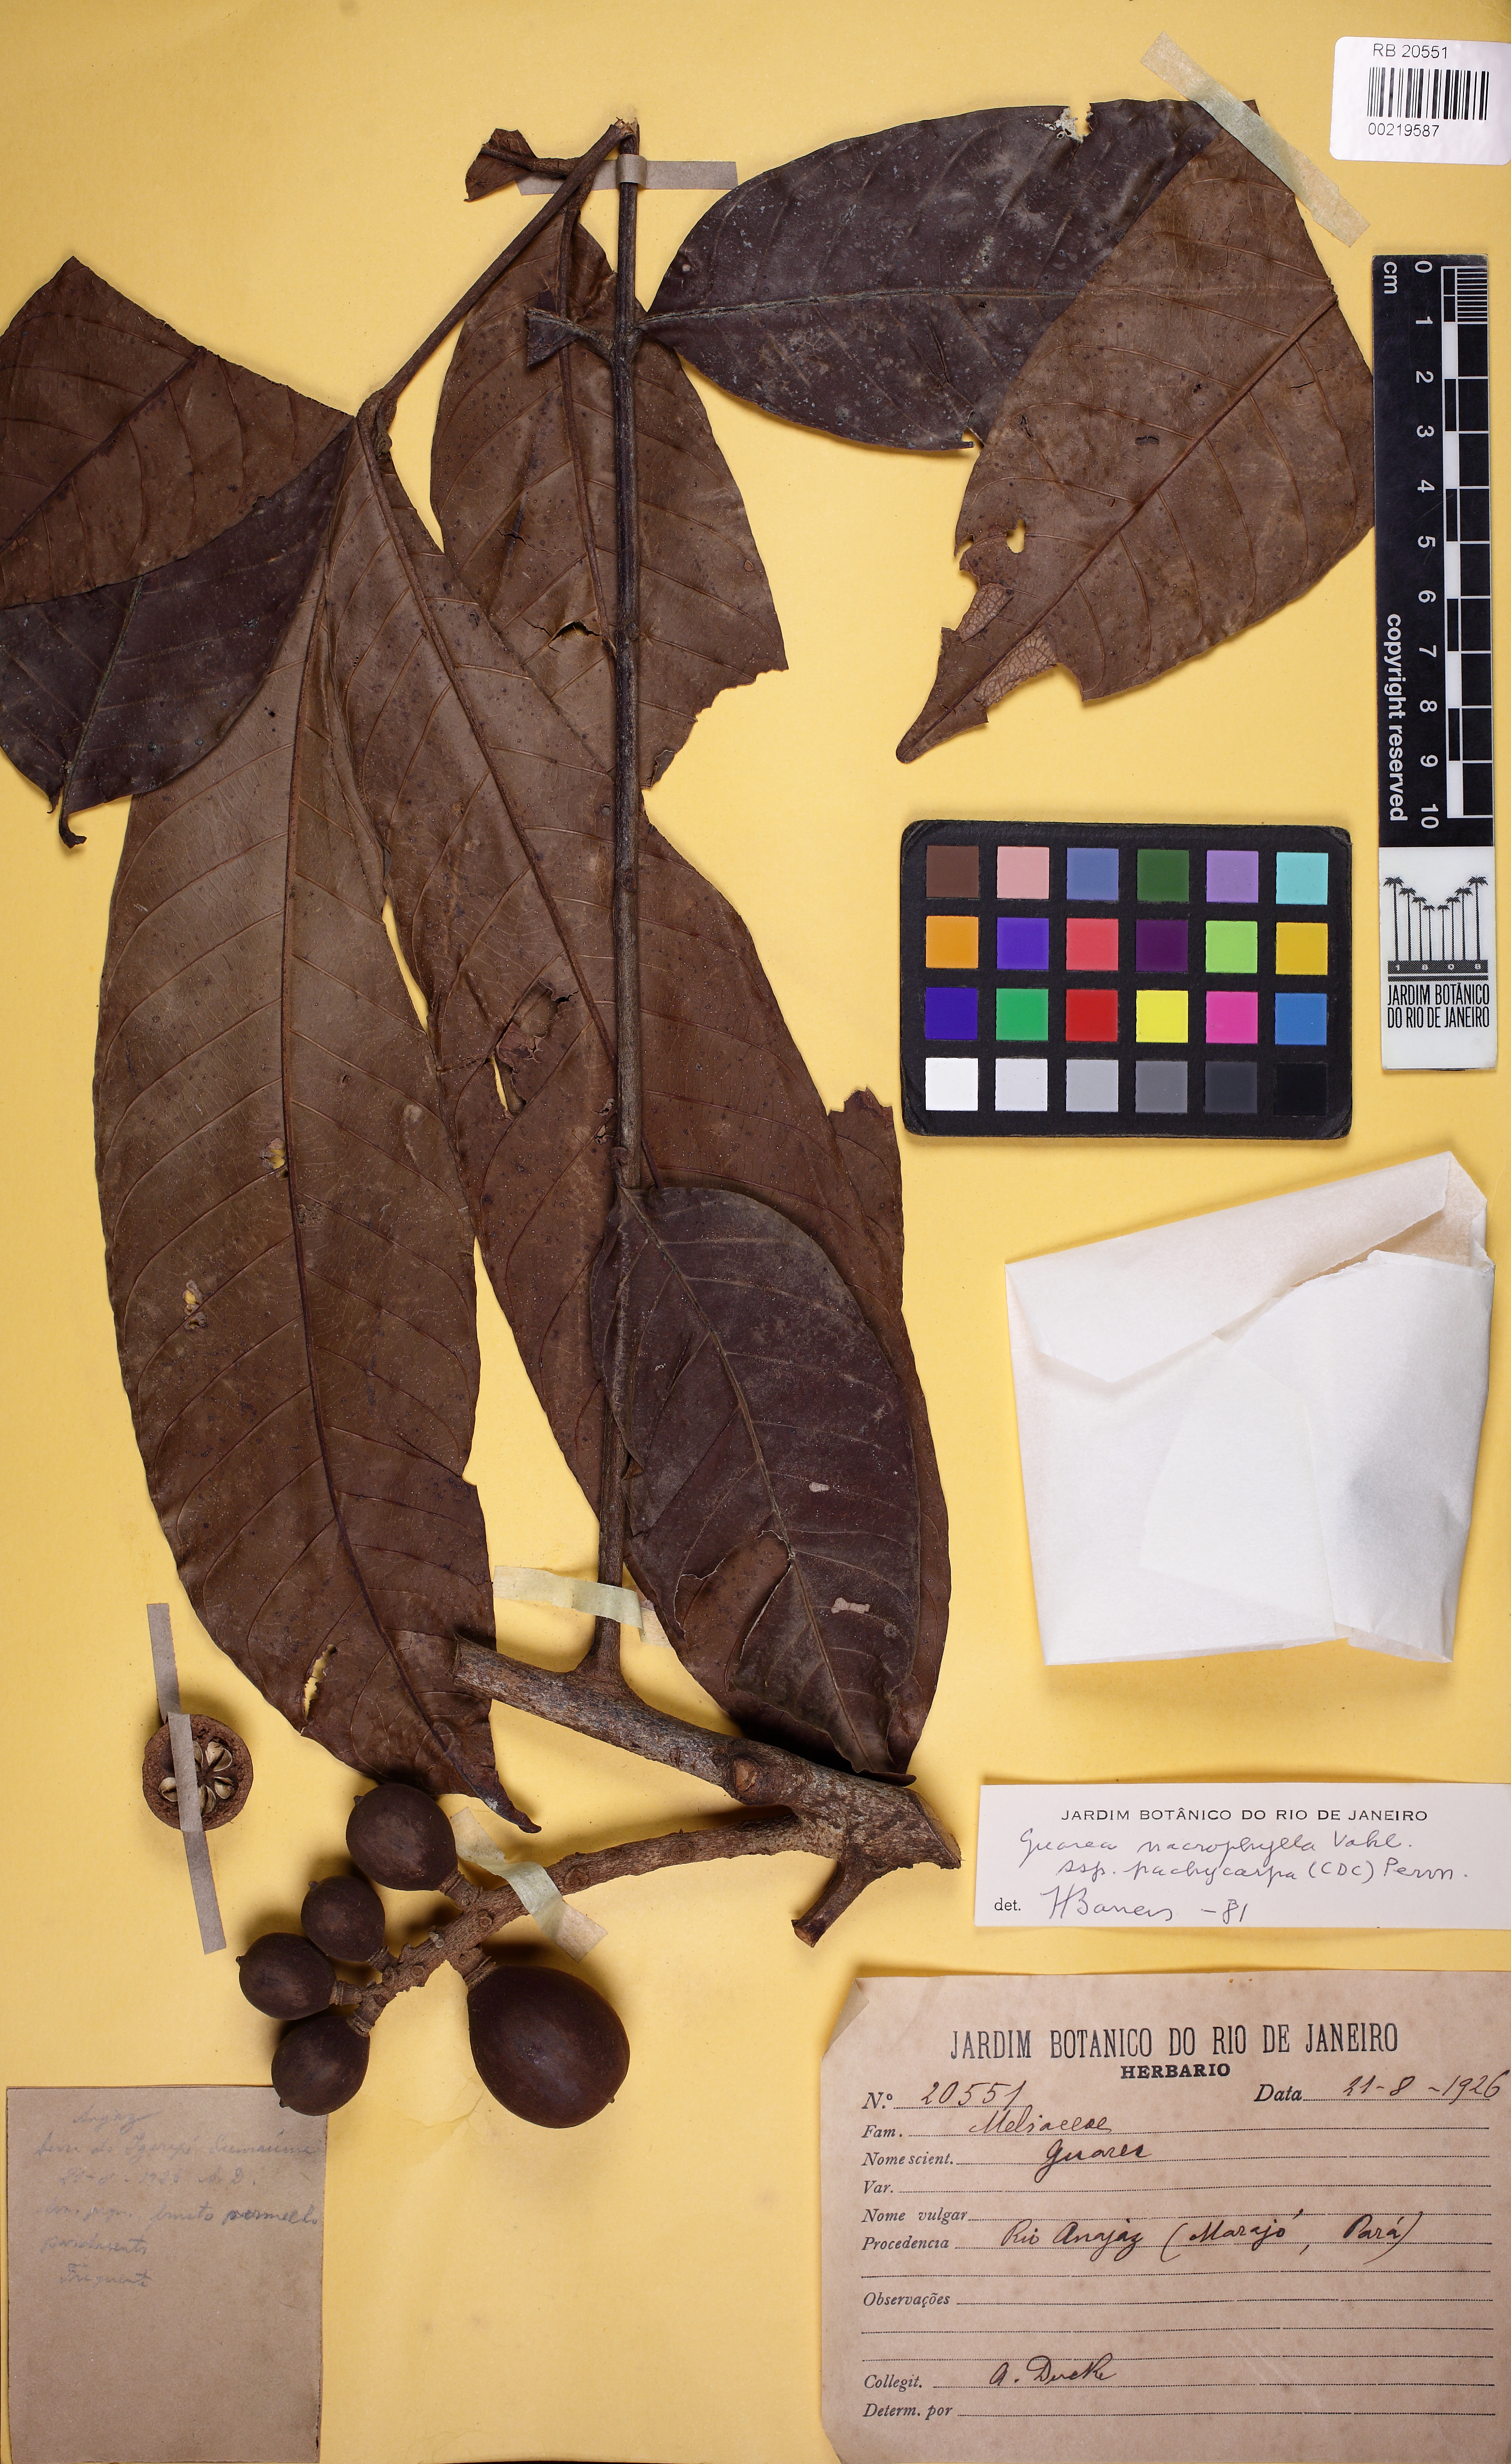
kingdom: Plantae
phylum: Tracheophyta
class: Magnoliopsida
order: Sapindales
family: Meliaceae
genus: Guarea
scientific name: Guarea macrophylla
